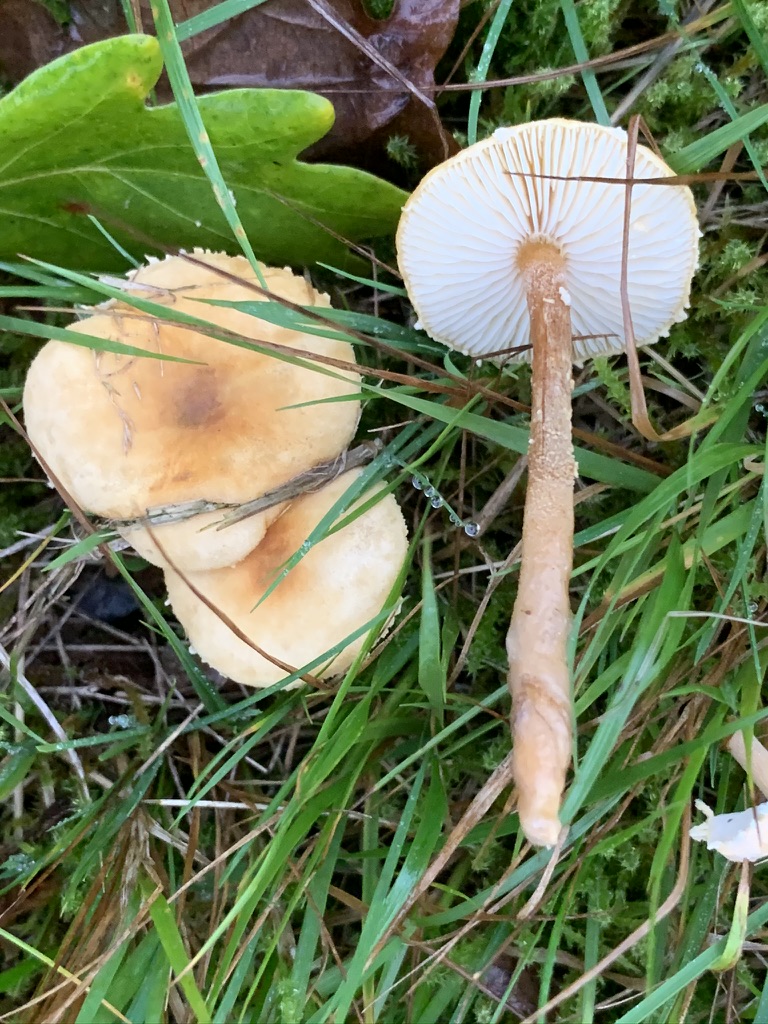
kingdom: Fungi
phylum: Basidiomycota
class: Agaricomycetes
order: Agaricales
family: Tricholomataceae
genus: Cystoderma
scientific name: Cystoderma amianthinum
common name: okkergul grynhat
